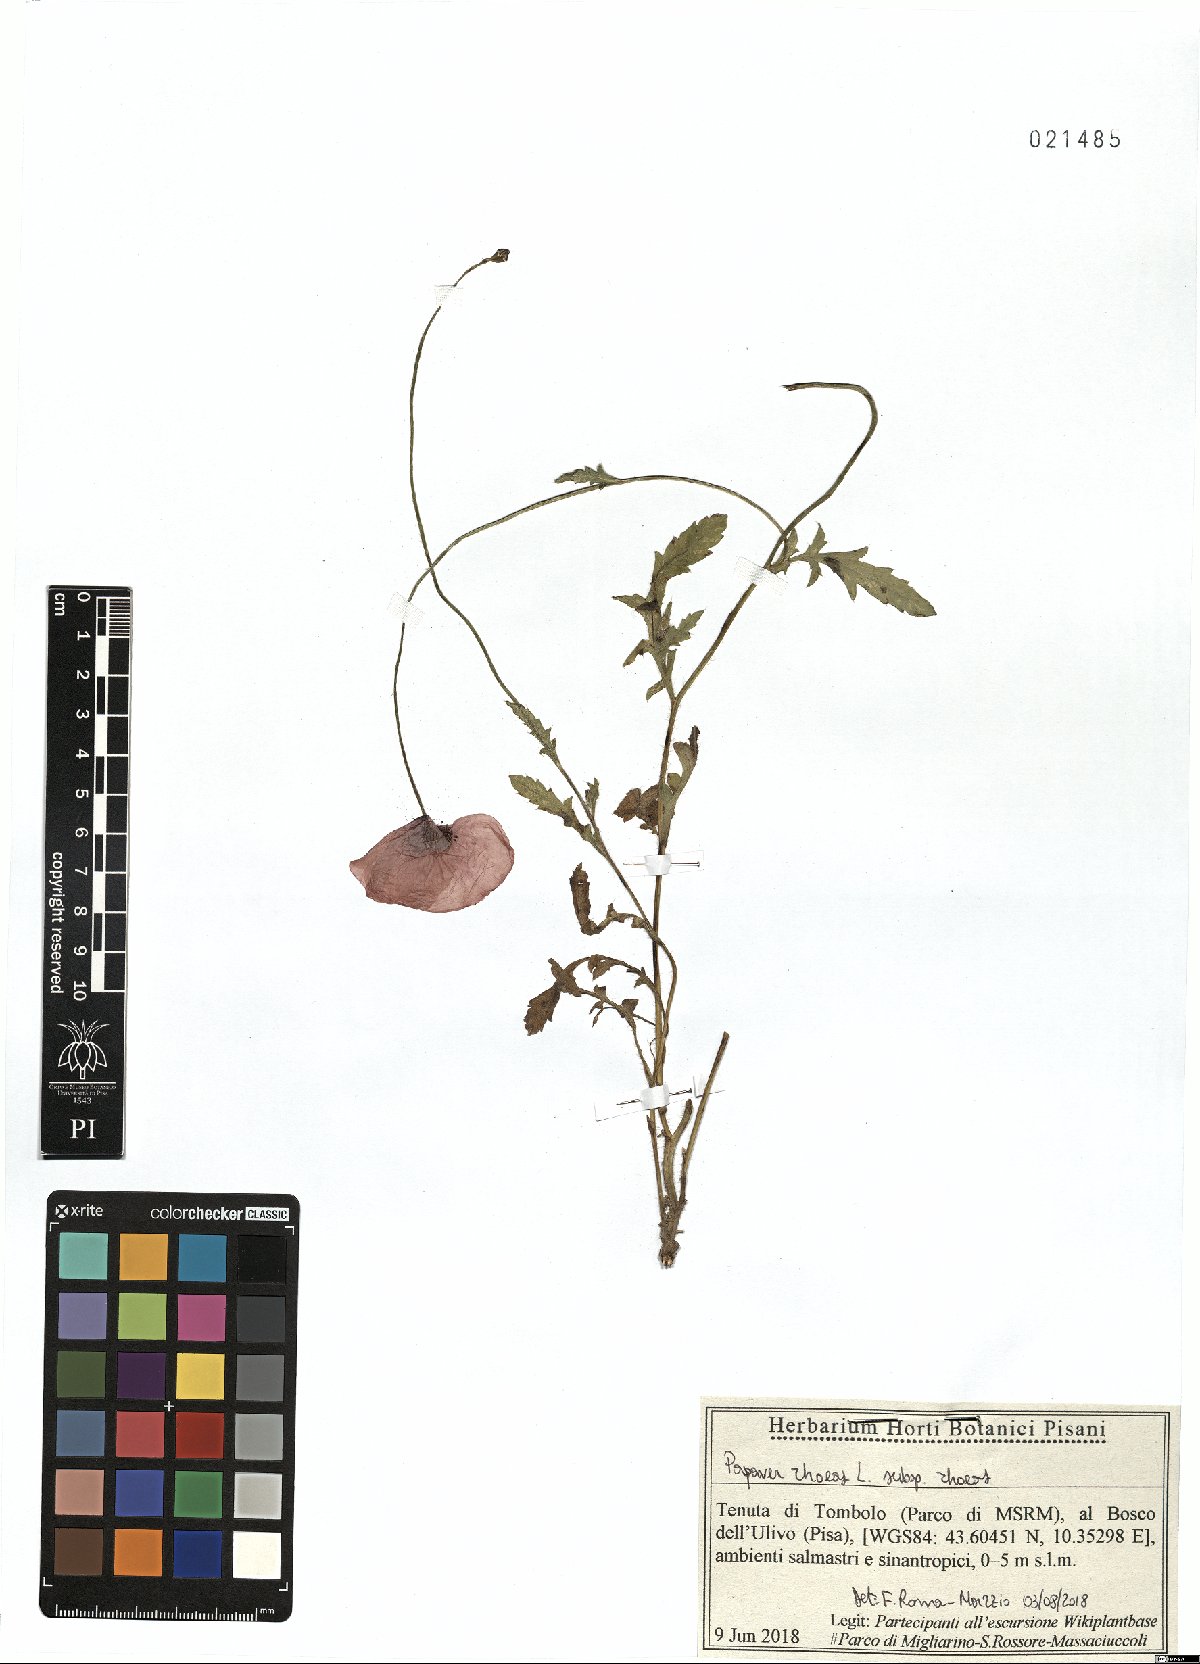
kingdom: Plantae
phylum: Tracheophyta
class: Magnoliopsida
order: Ranunculales
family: Papaveraceae
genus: Papaver
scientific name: Papaver rhoeas
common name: Corn poppy
